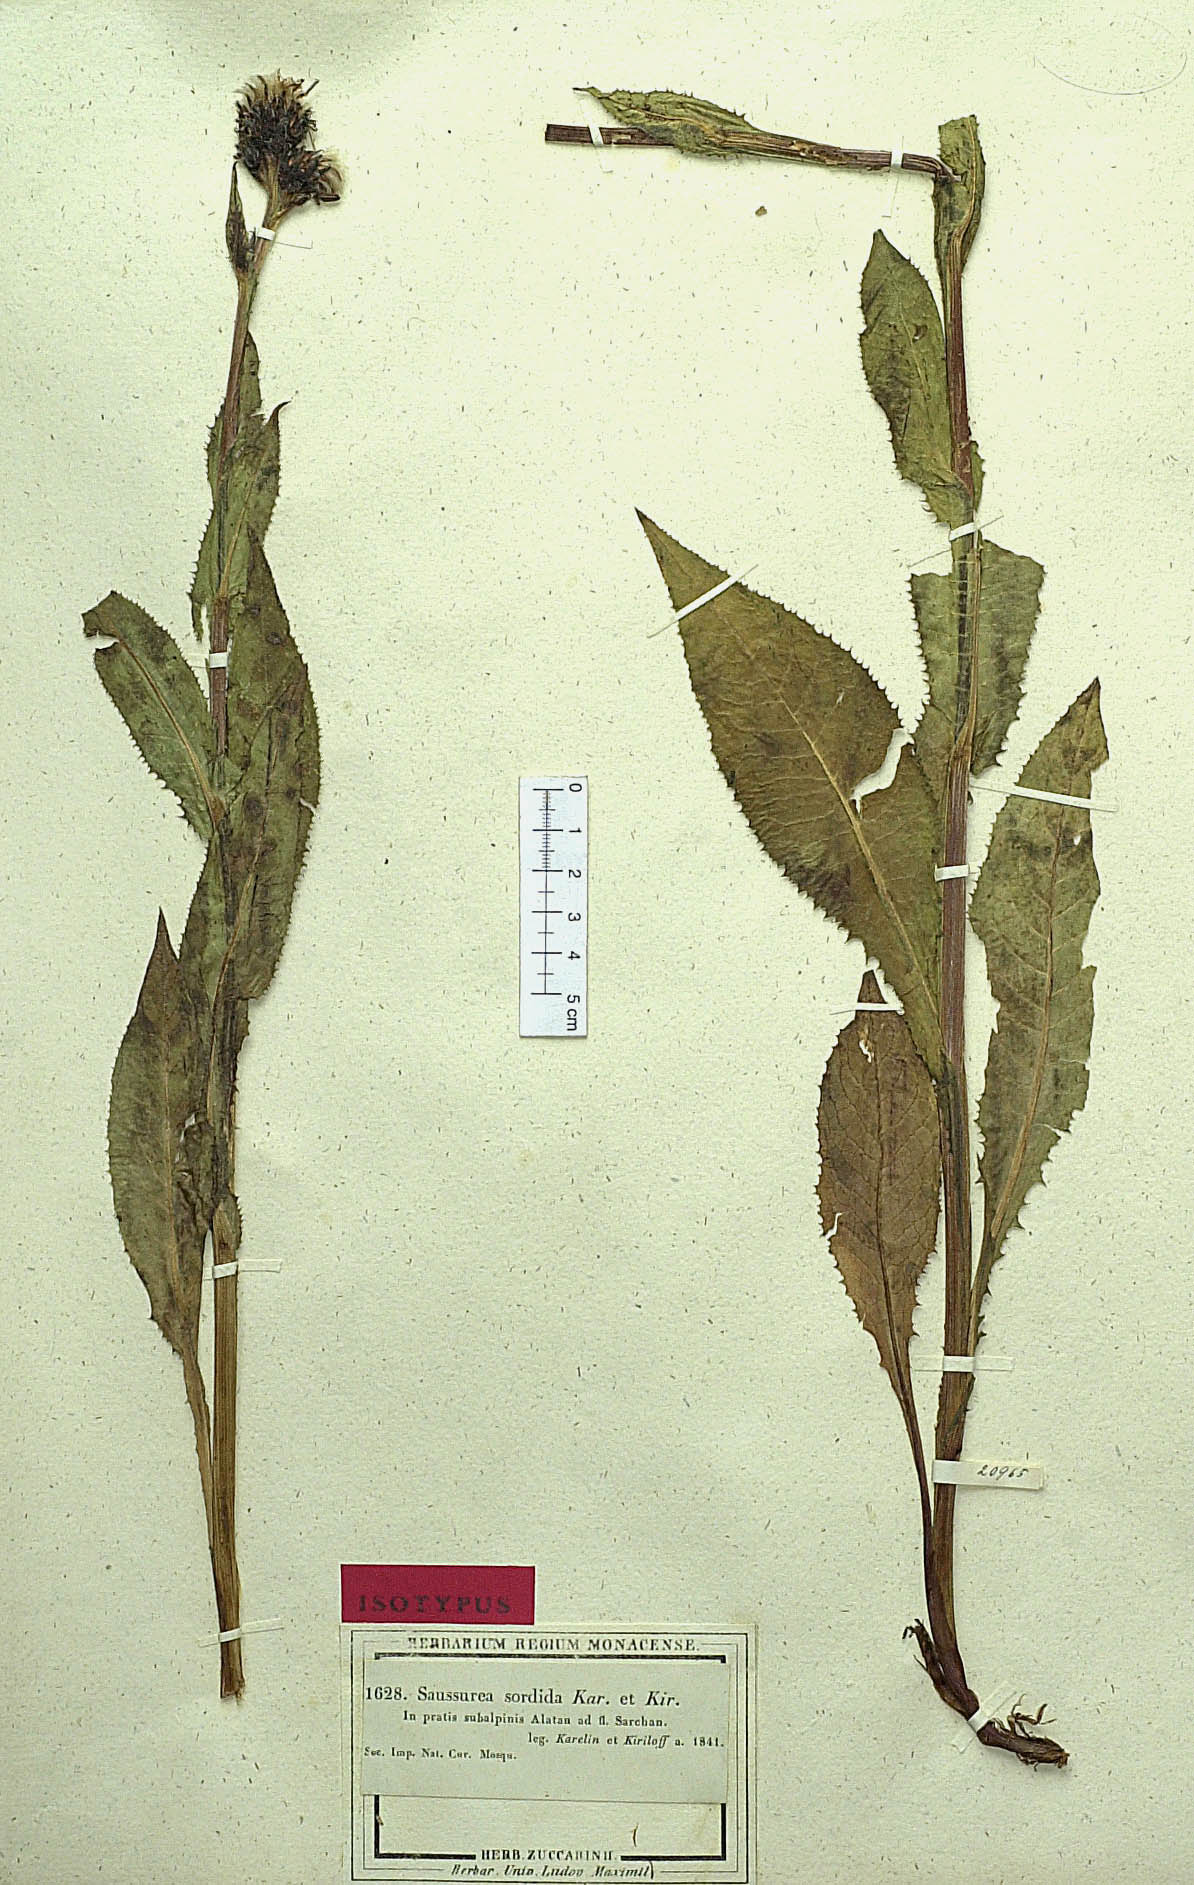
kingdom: Plantae
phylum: Tracheophyta
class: Magnoliopsida
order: Asterales
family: Asteraceae
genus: Saussurea
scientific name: Saussurea sordida
